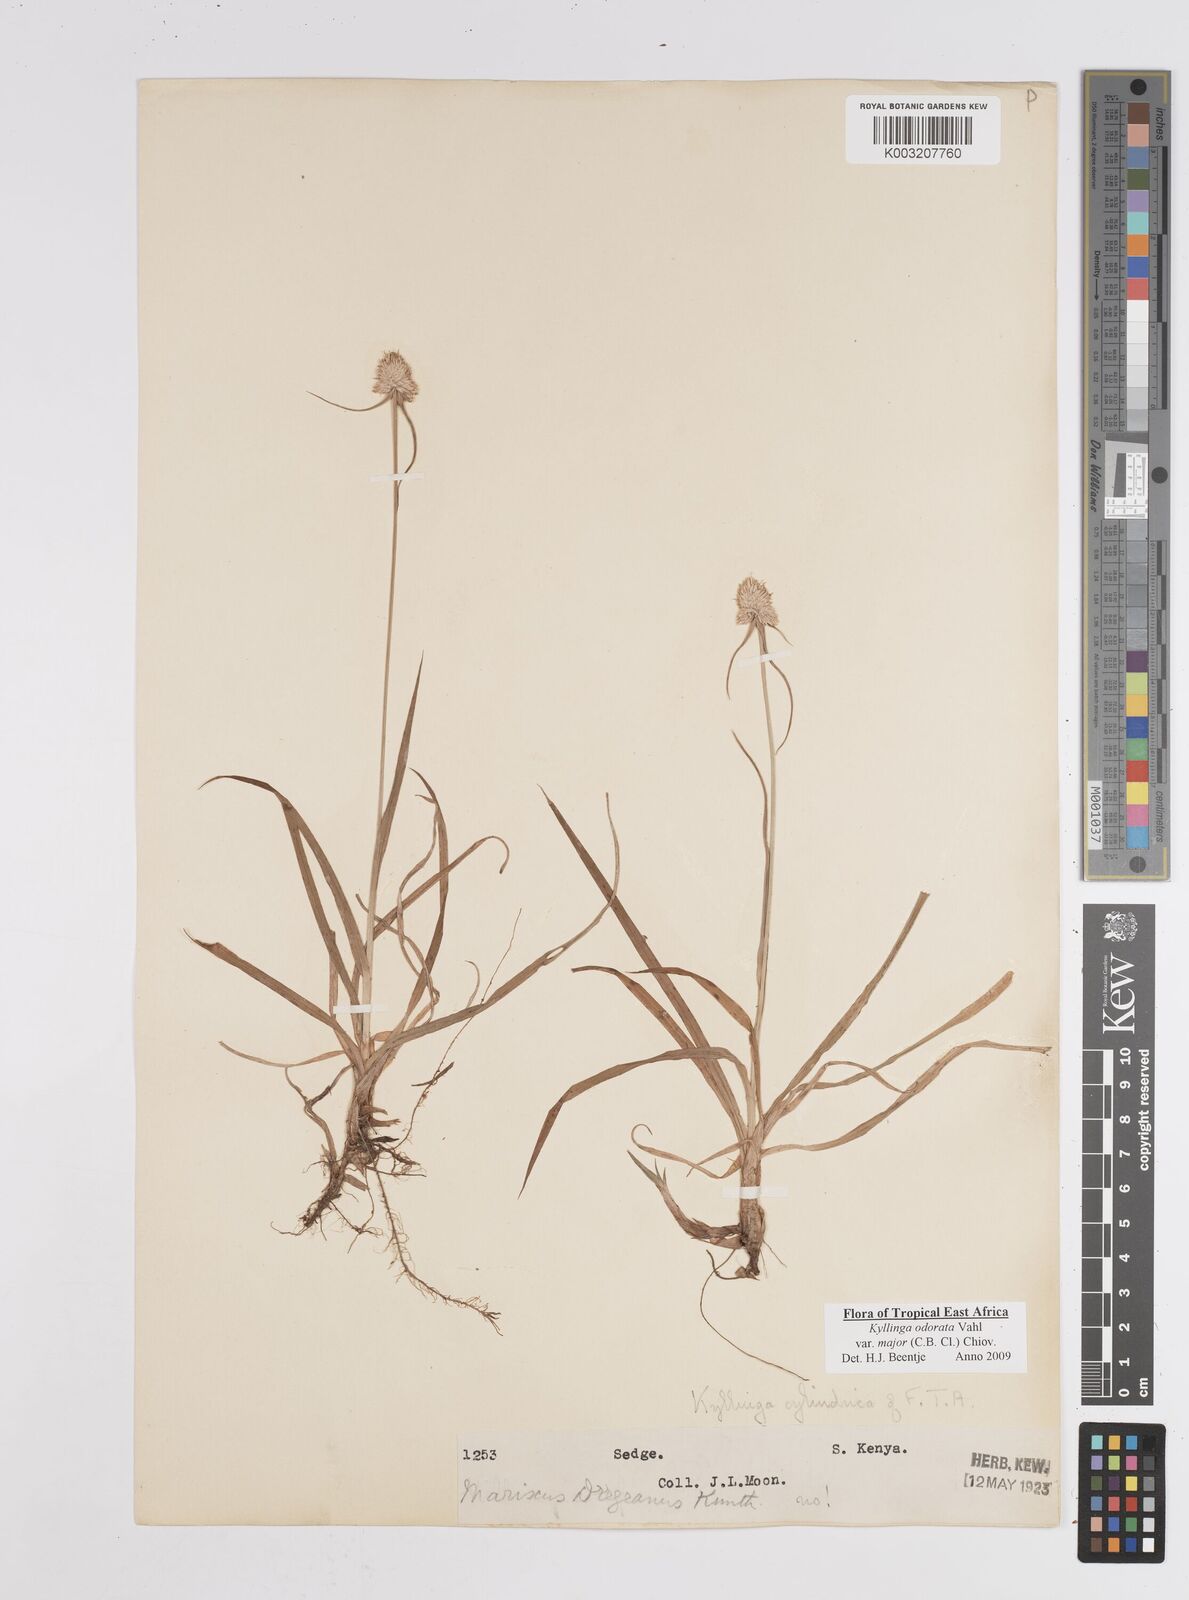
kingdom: Plantae
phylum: Tracheophyta
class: Liliopsida
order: Poales
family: Cyperaceae
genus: Cyperus
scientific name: Cyperus
